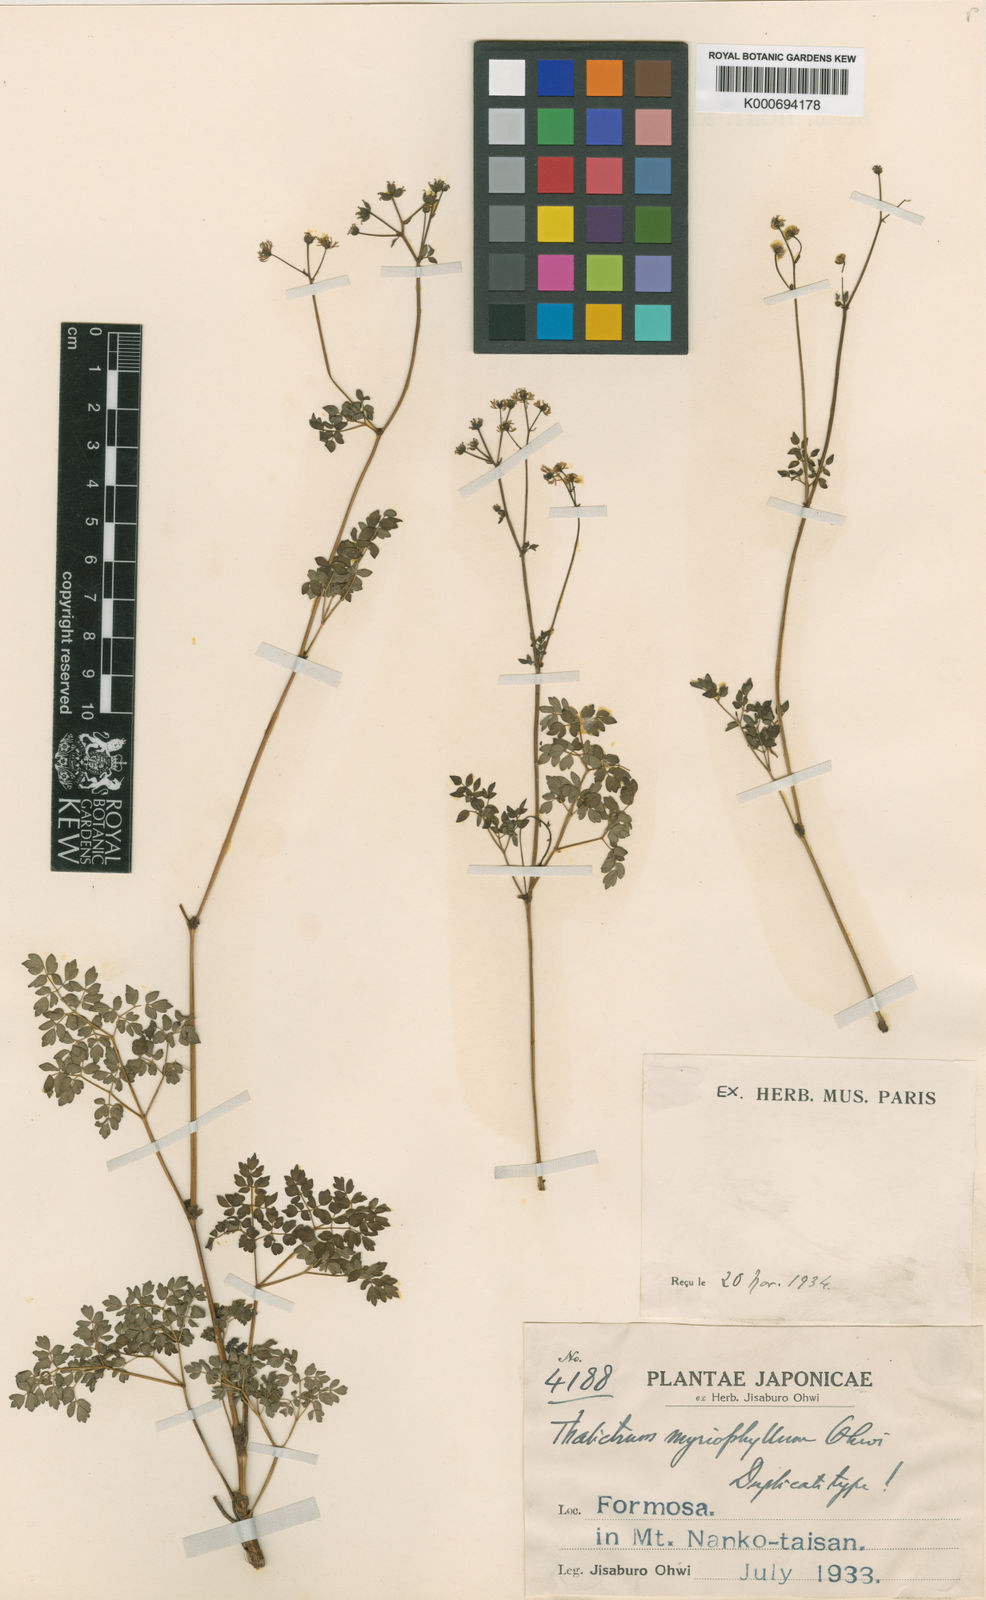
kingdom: Plantae
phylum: Tracheophyta
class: Magnoliopsida
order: Ranunculales
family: Ranunculaceae
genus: Thalictrum
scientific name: Thalictrum myriophyllum
